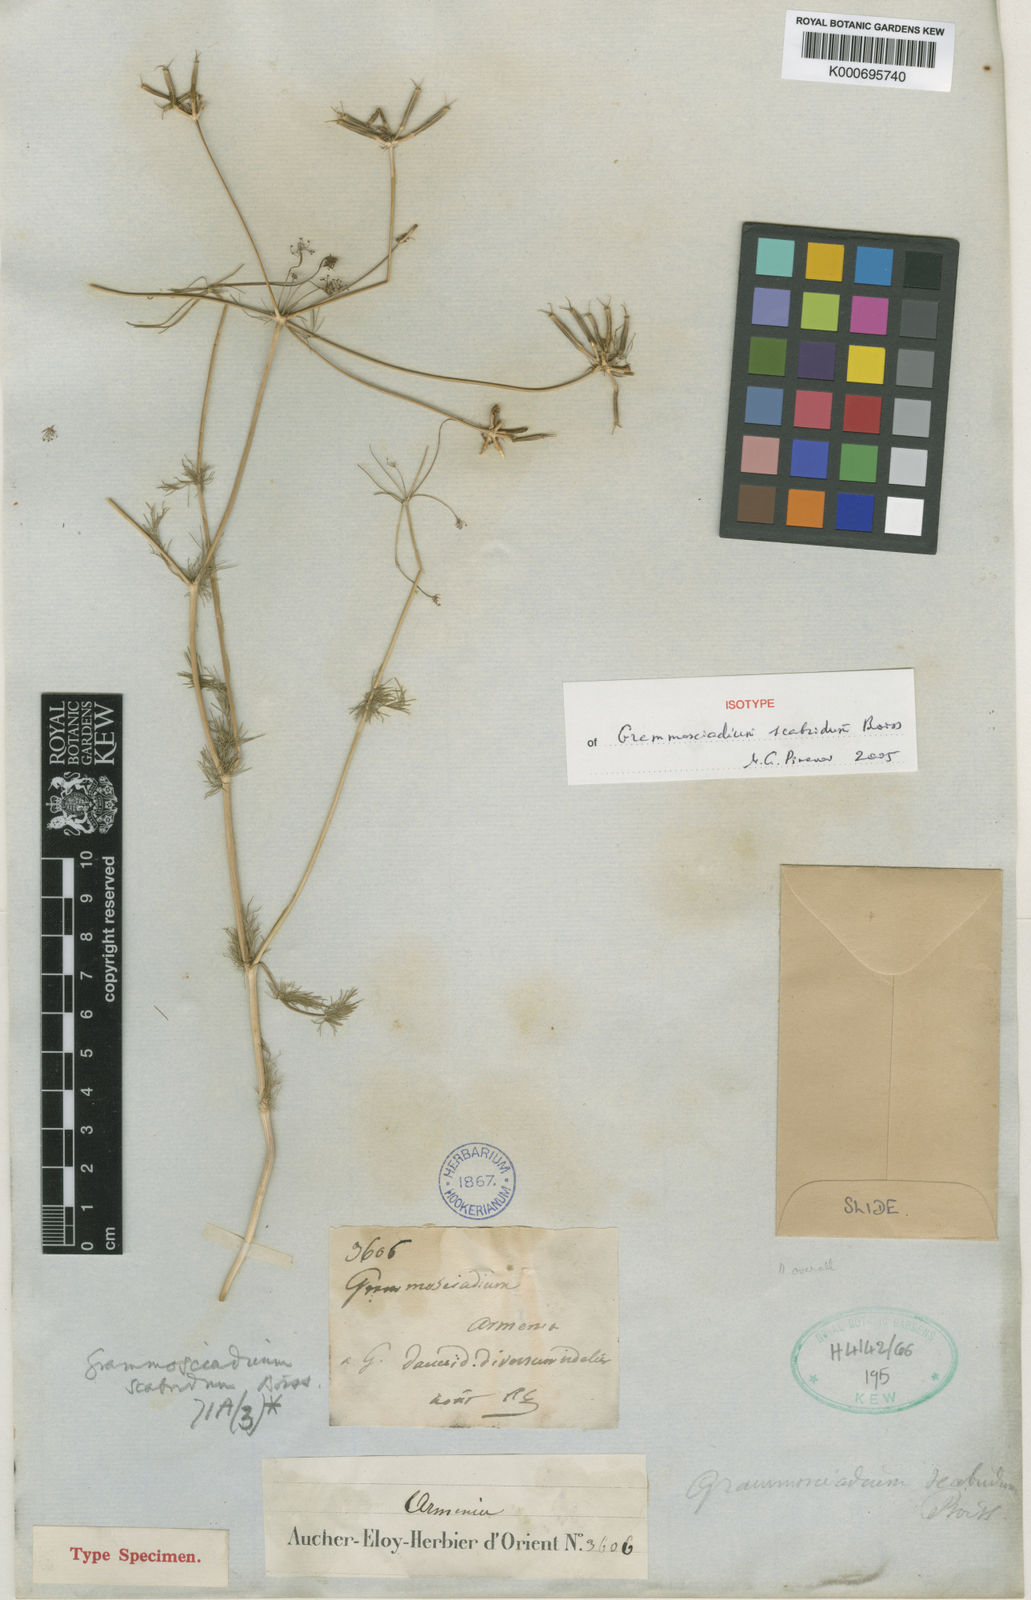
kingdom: Plantae
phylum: Tracheophyta
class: Magnoliopsida
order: Apiales
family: Apiaceae
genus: Grammosciadium
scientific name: Grammosciadium scabridum
